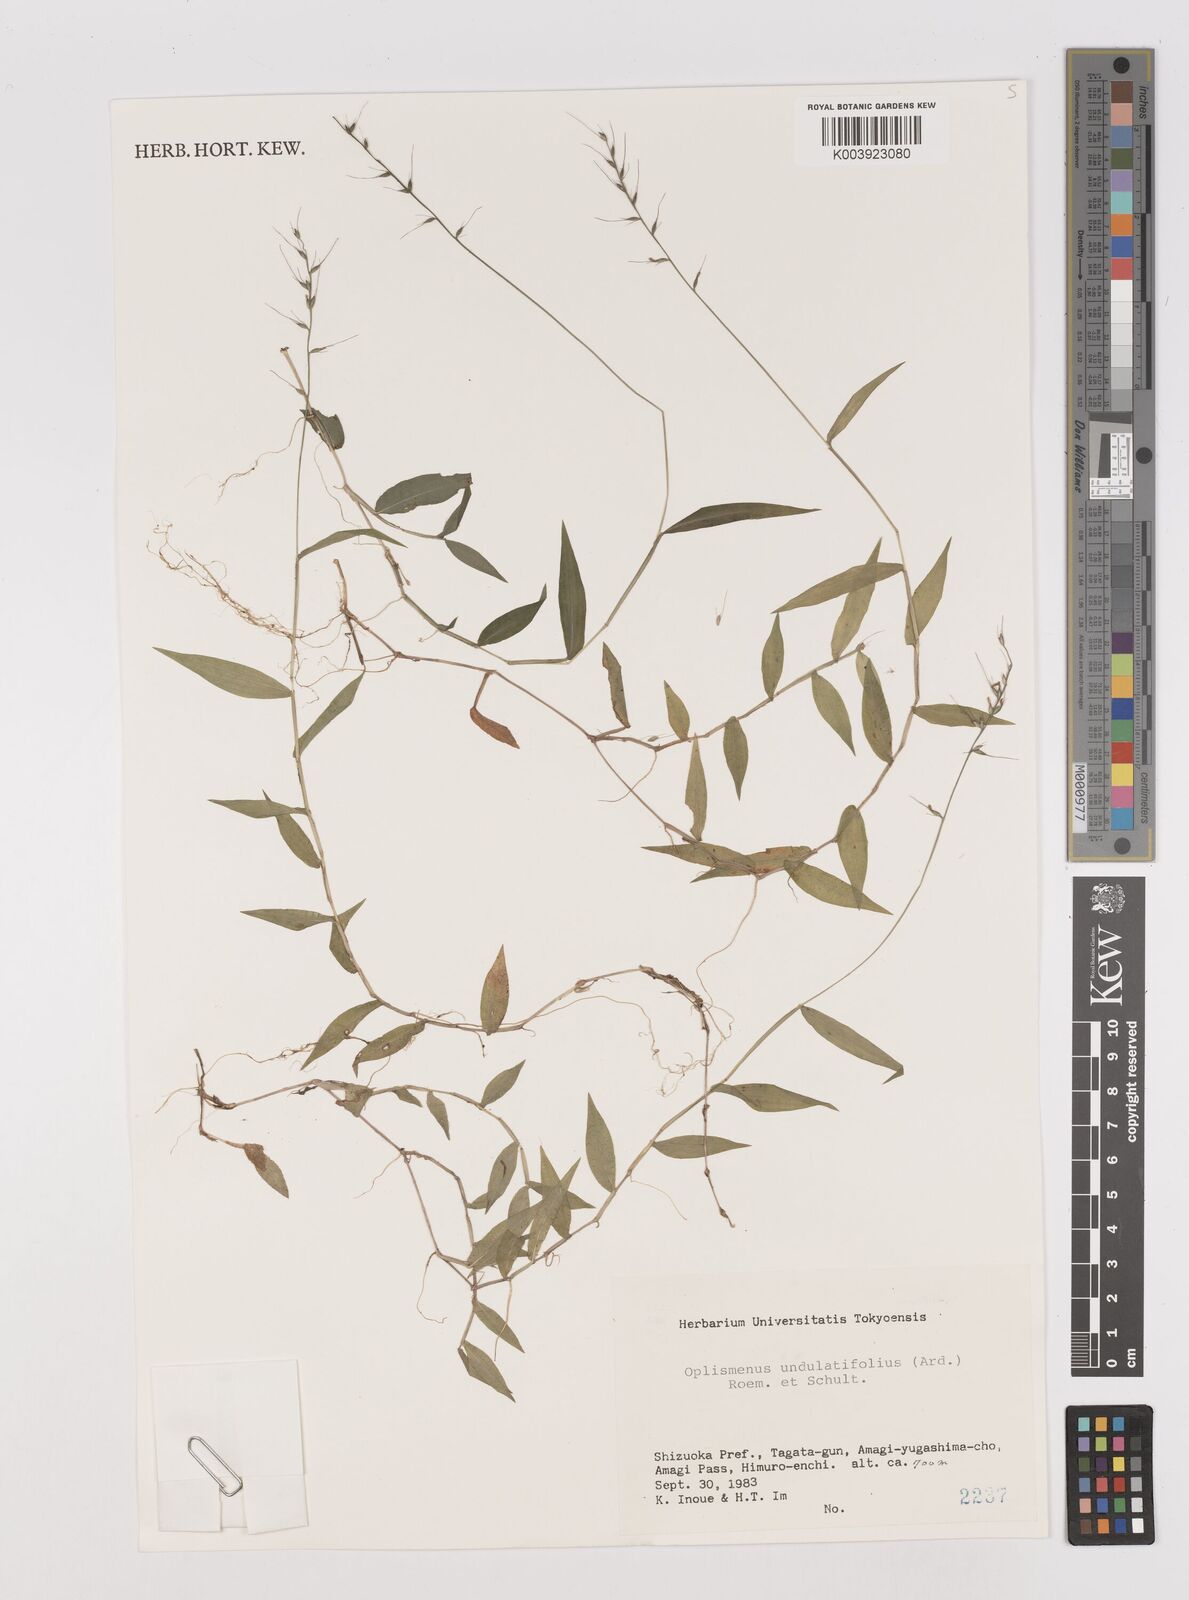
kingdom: Plantae
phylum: Tracheophyta
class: Liliopsida
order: Poales
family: Poaceae
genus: Oplismenus
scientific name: Oplismenus undulatifolius
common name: Wavyleaf basketgrass
